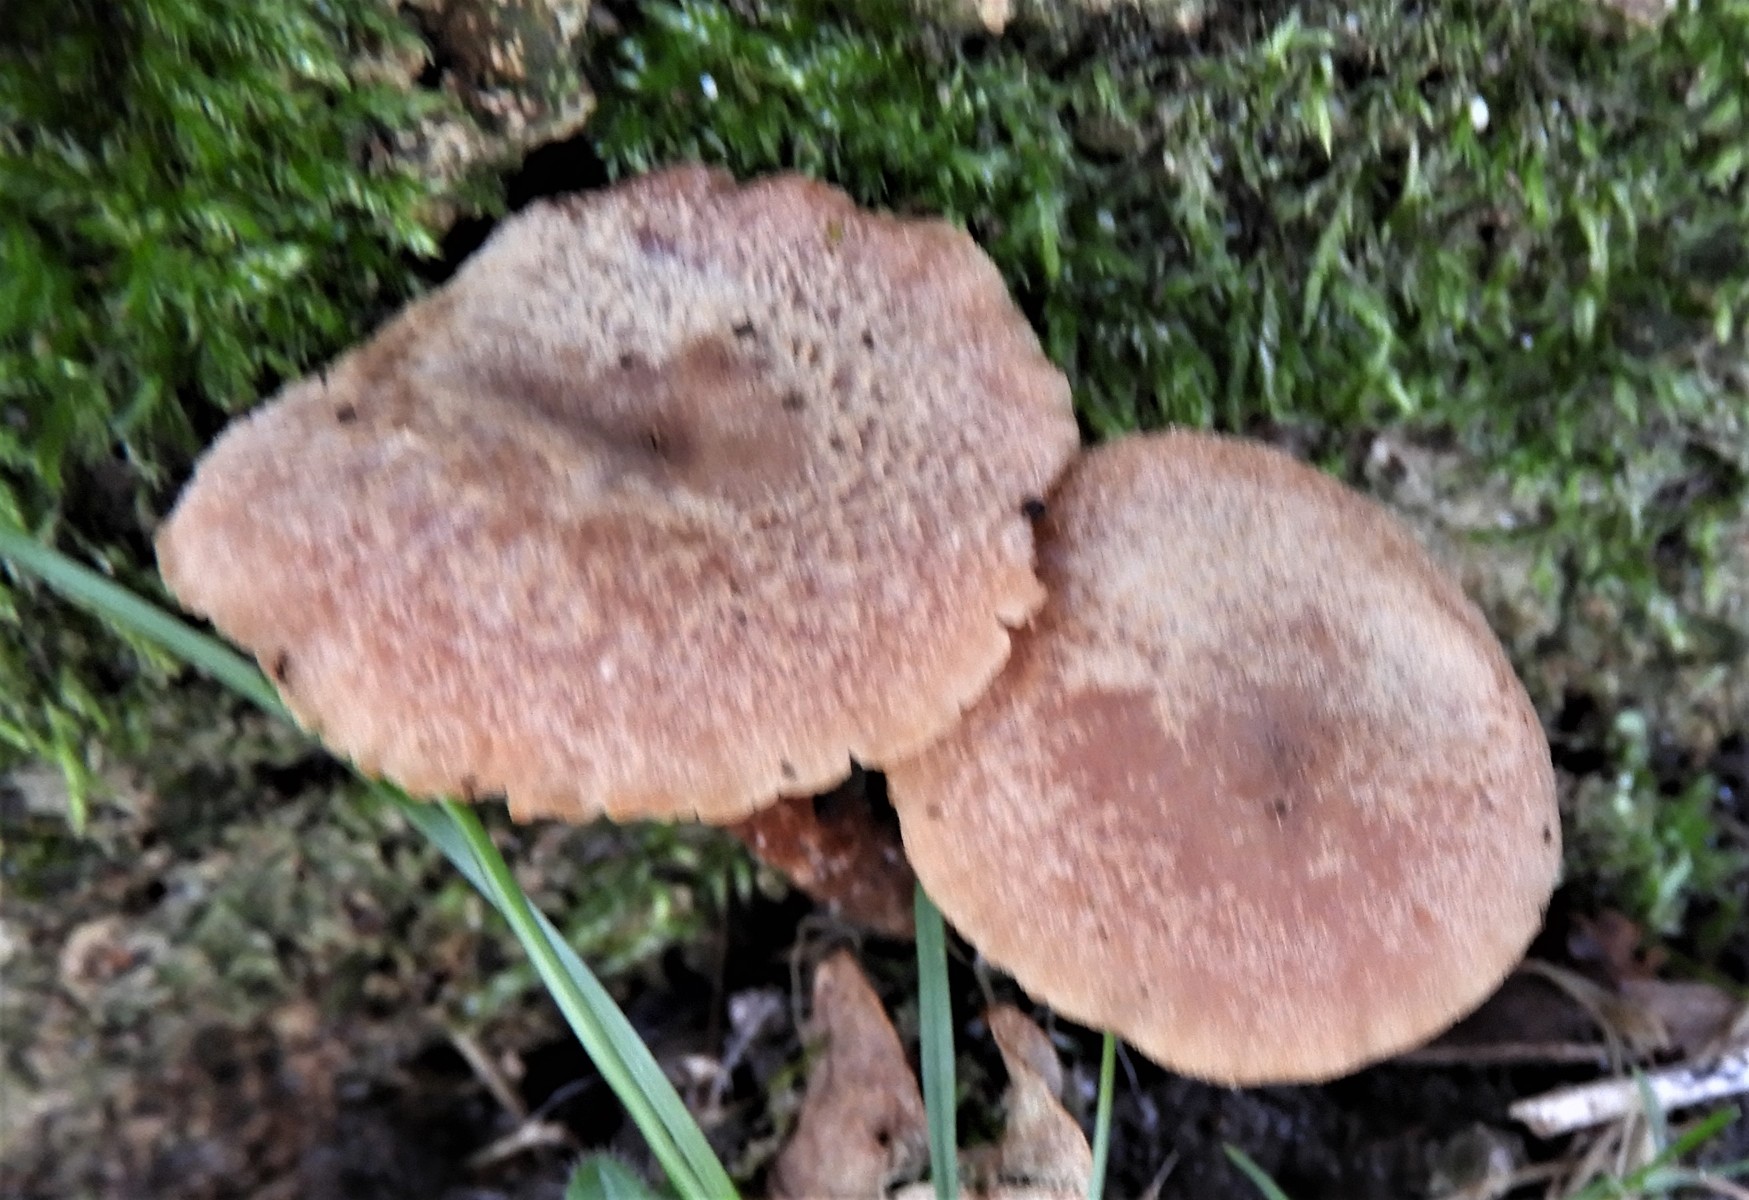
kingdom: Fungi
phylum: Basidiomycota
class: Agaricomycetes
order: Agaricales
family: Hydnangiaceae
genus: Laccaria
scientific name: Laccaria proxima
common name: stor ametysthat
